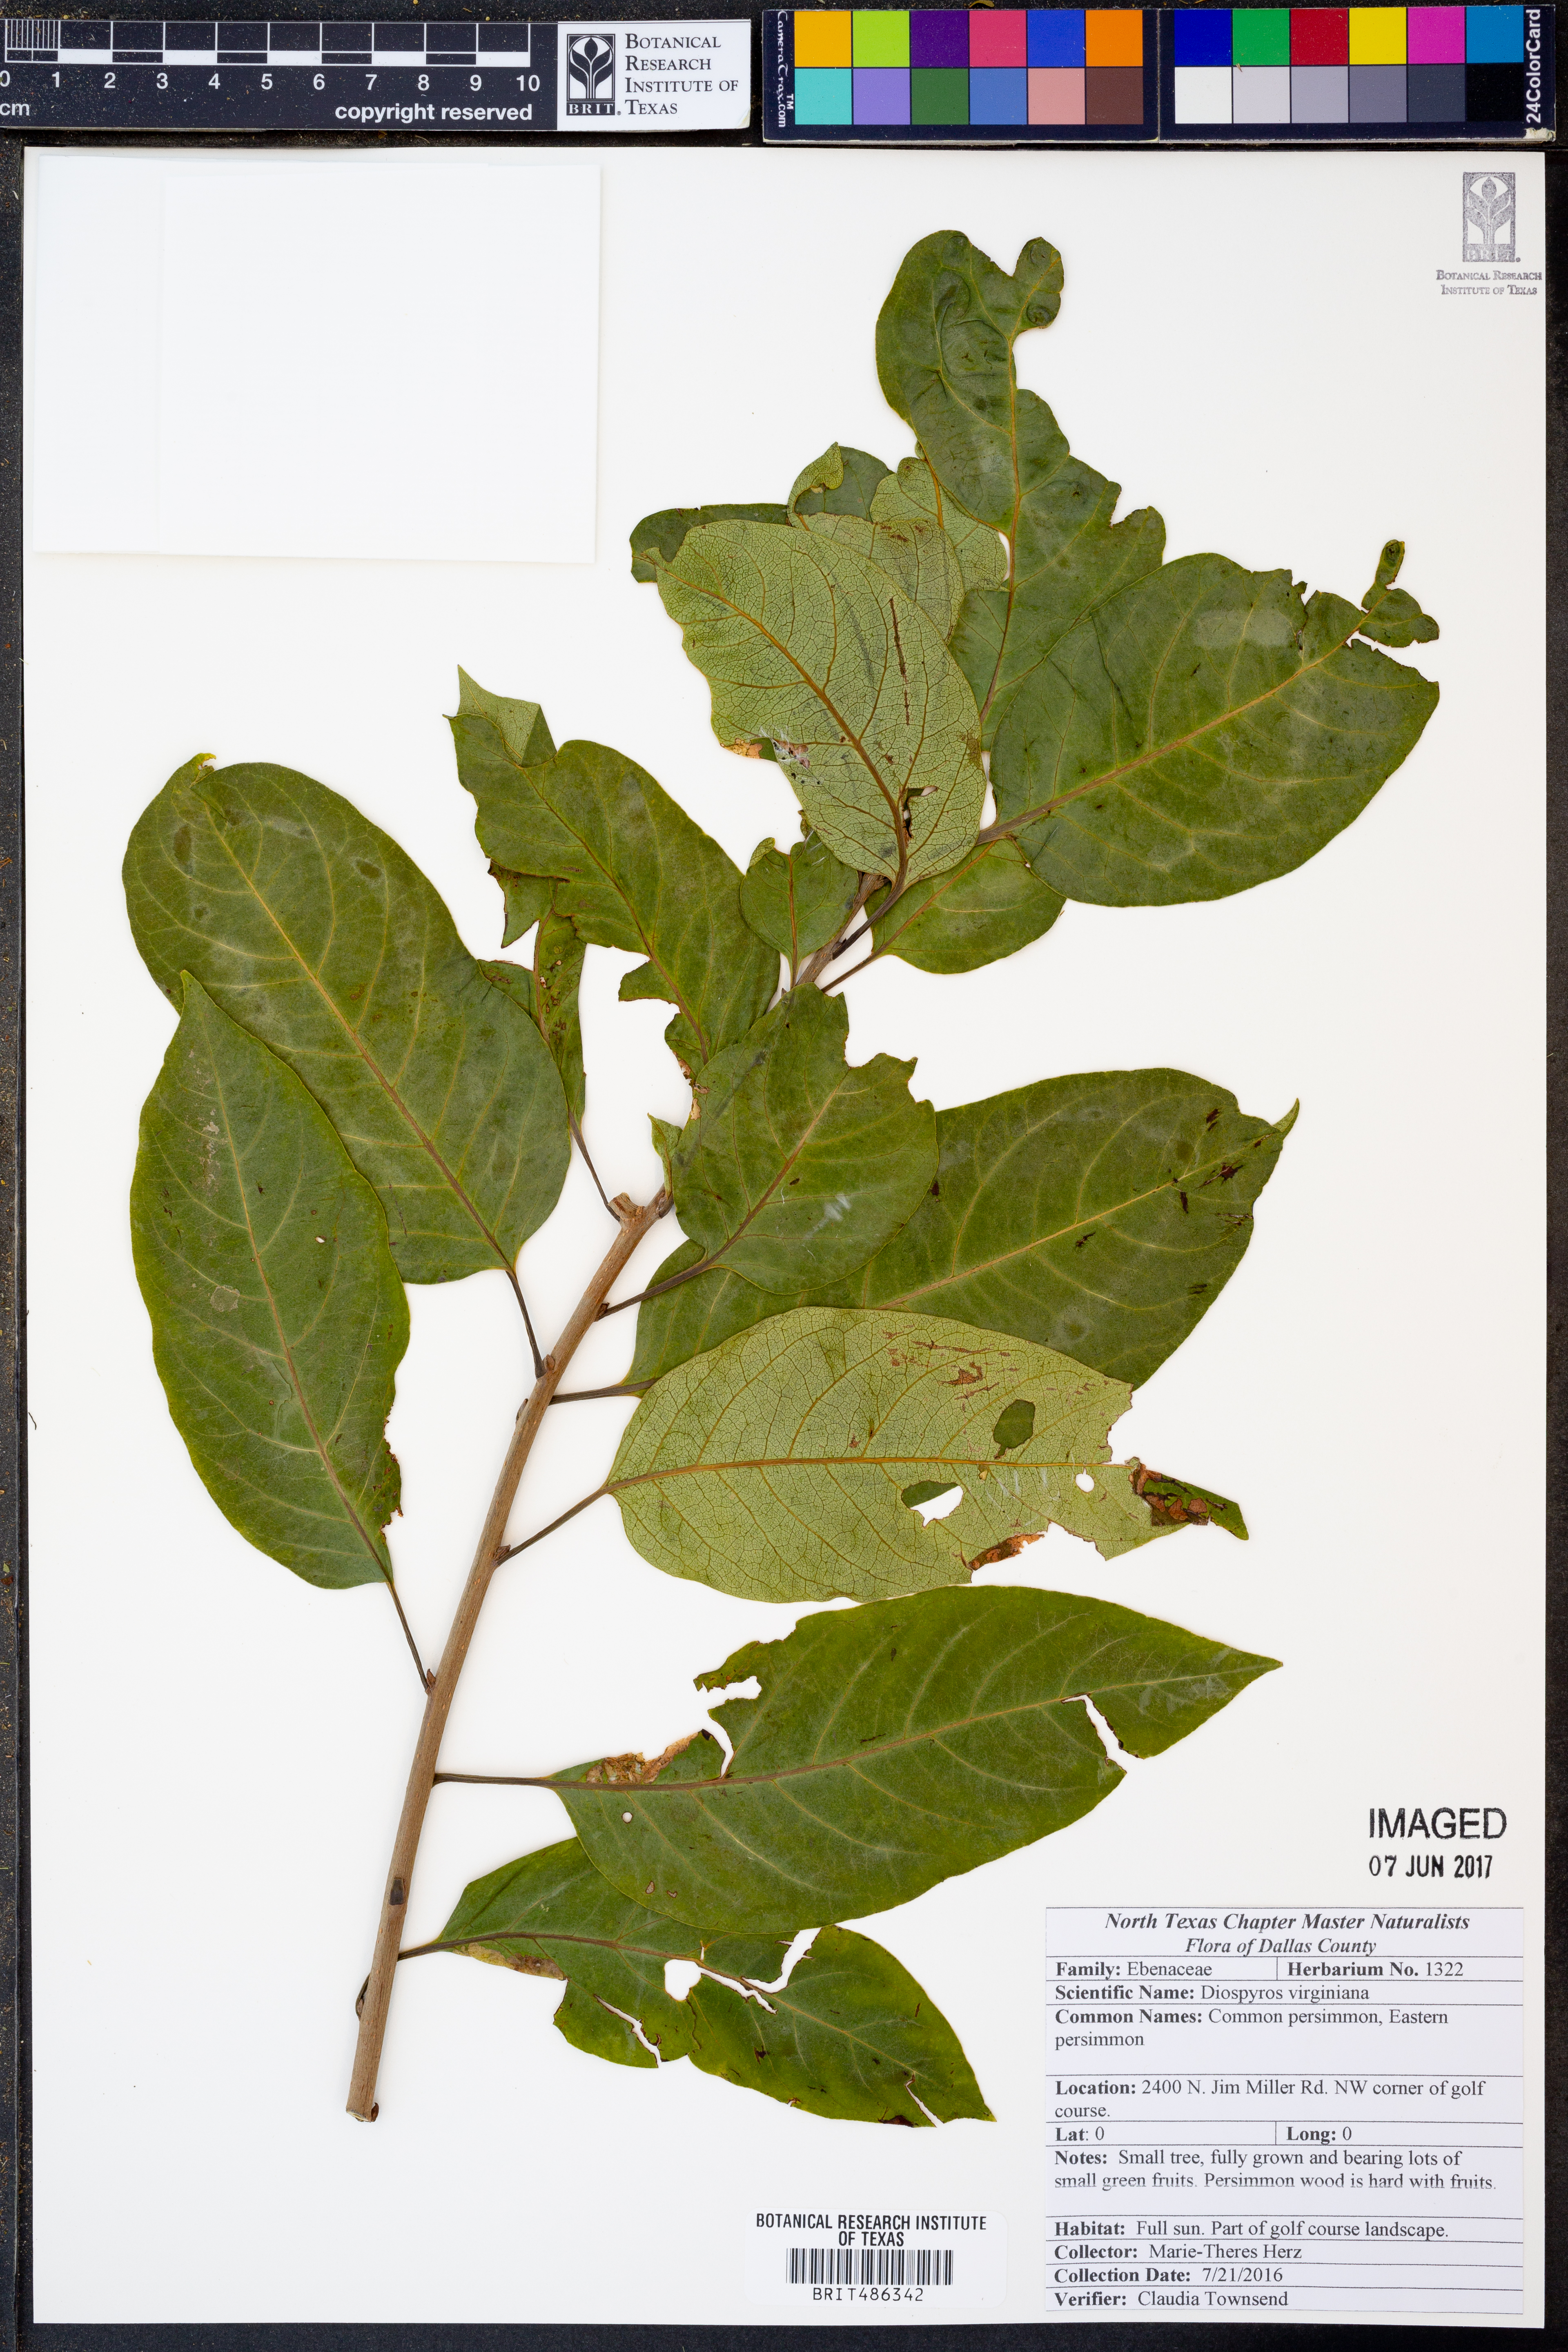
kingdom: Plantae
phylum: Tracheophyta
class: Magnoliopsida
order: Ericales
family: Ebenaceae
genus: Diospyros
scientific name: Diospyros virginiana
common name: Persimmon
